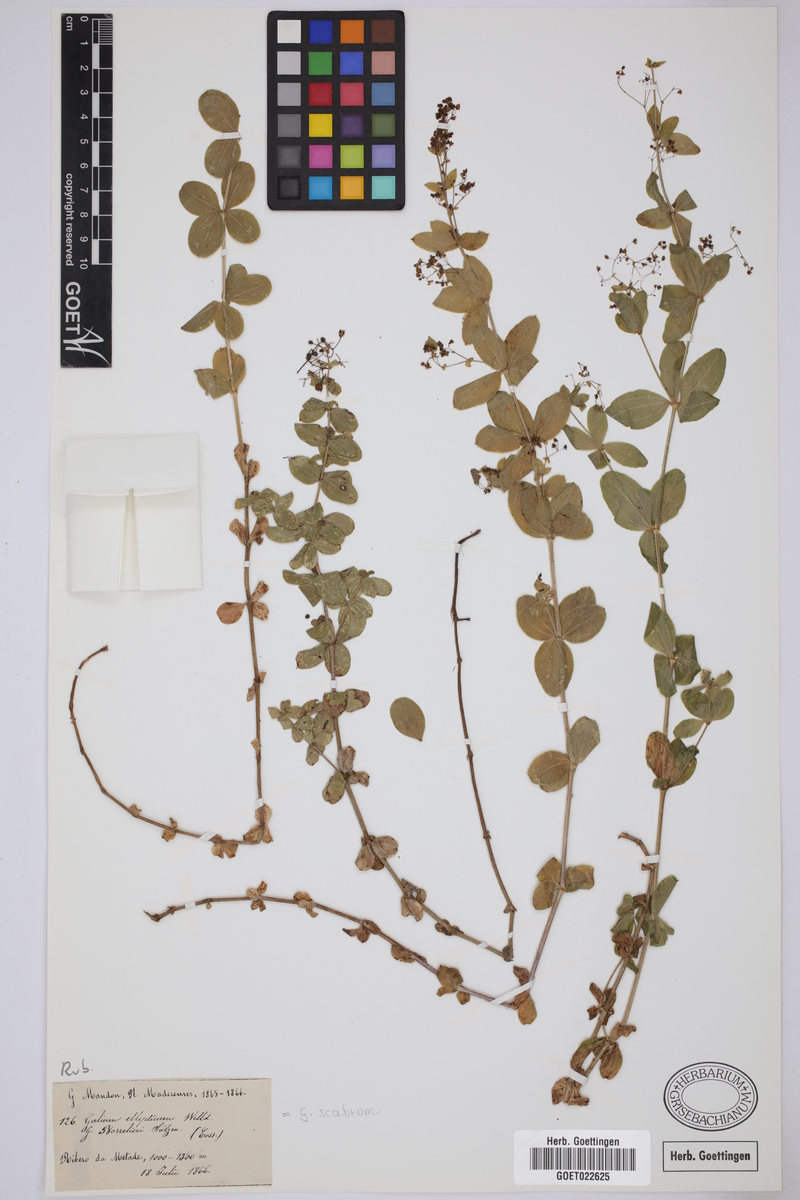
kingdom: Plantae
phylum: Tracheophyta
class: Magnoliopsida
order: Gentianales
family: Rubiaceae
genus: Galium
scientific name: Galium scabrum
